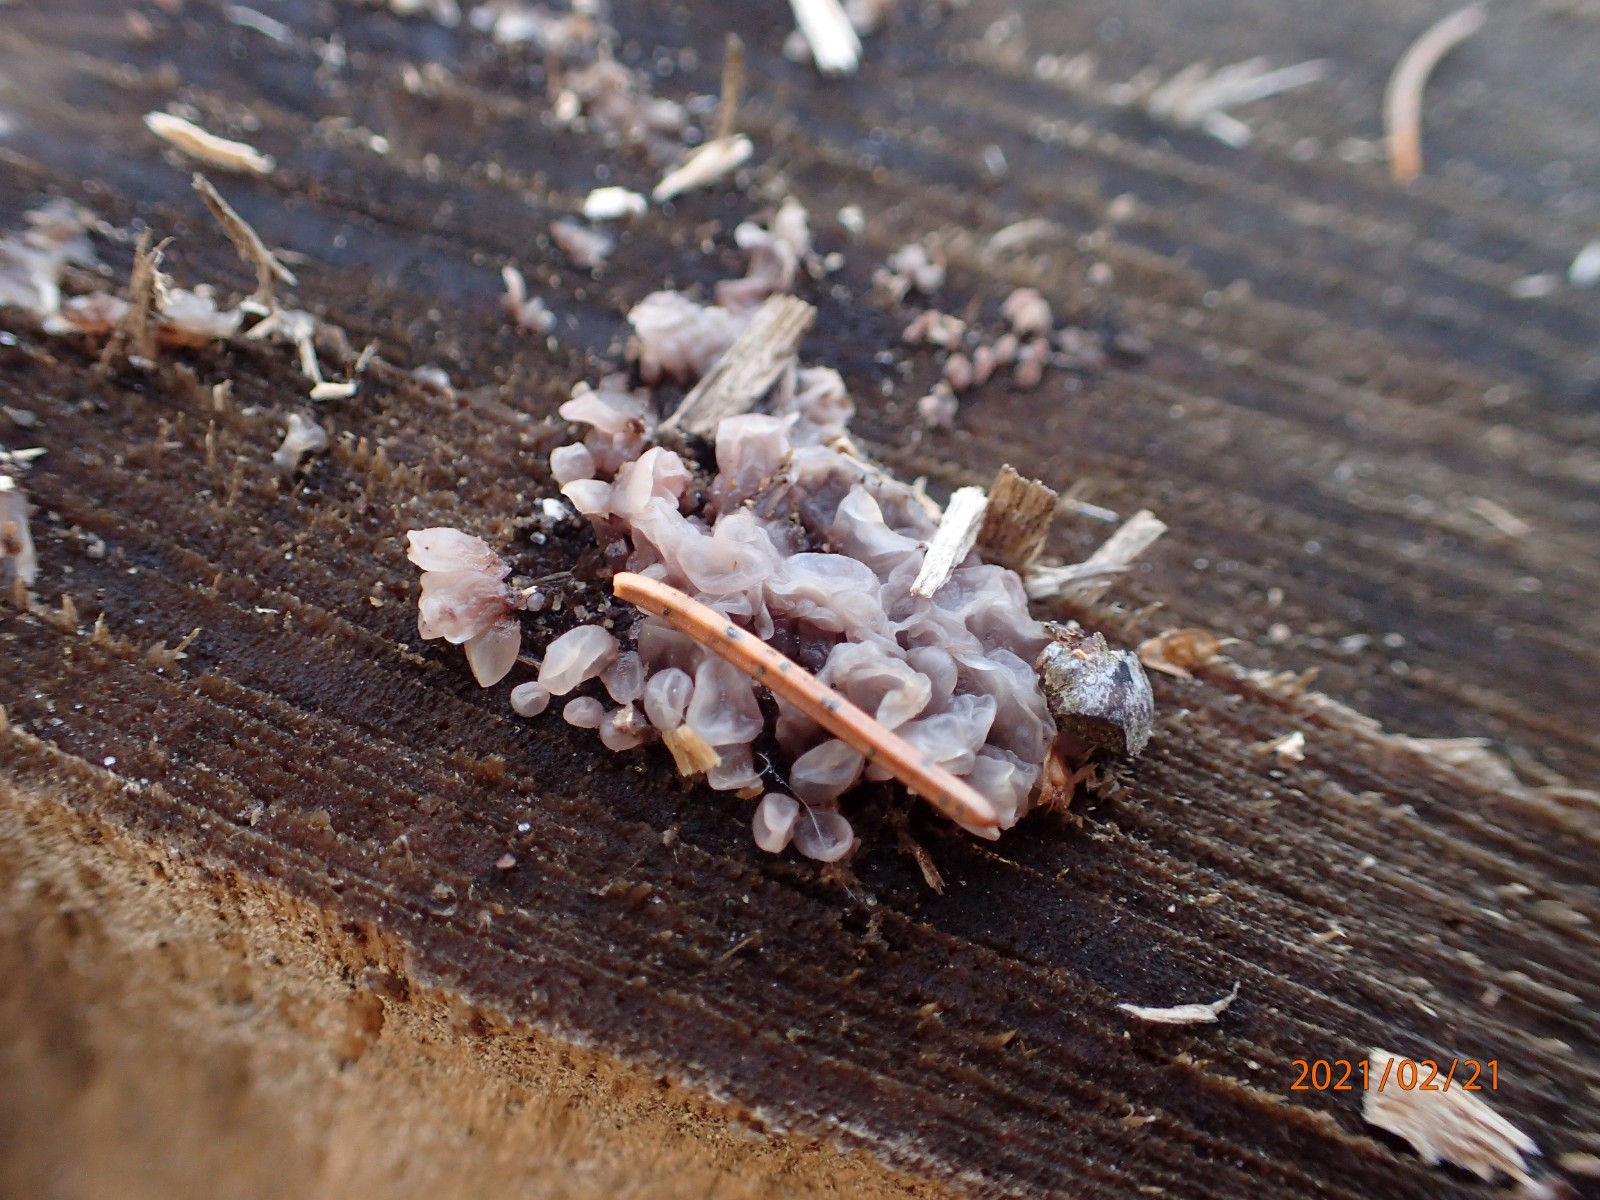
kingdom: Fungi
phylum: Ascomycota
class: Leotiomycetes
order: Helotiales
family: Gelatinodiscaceae
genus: Ascocoryne
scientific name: Ascocoryne sarcoides
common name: rødlilla sejskive
